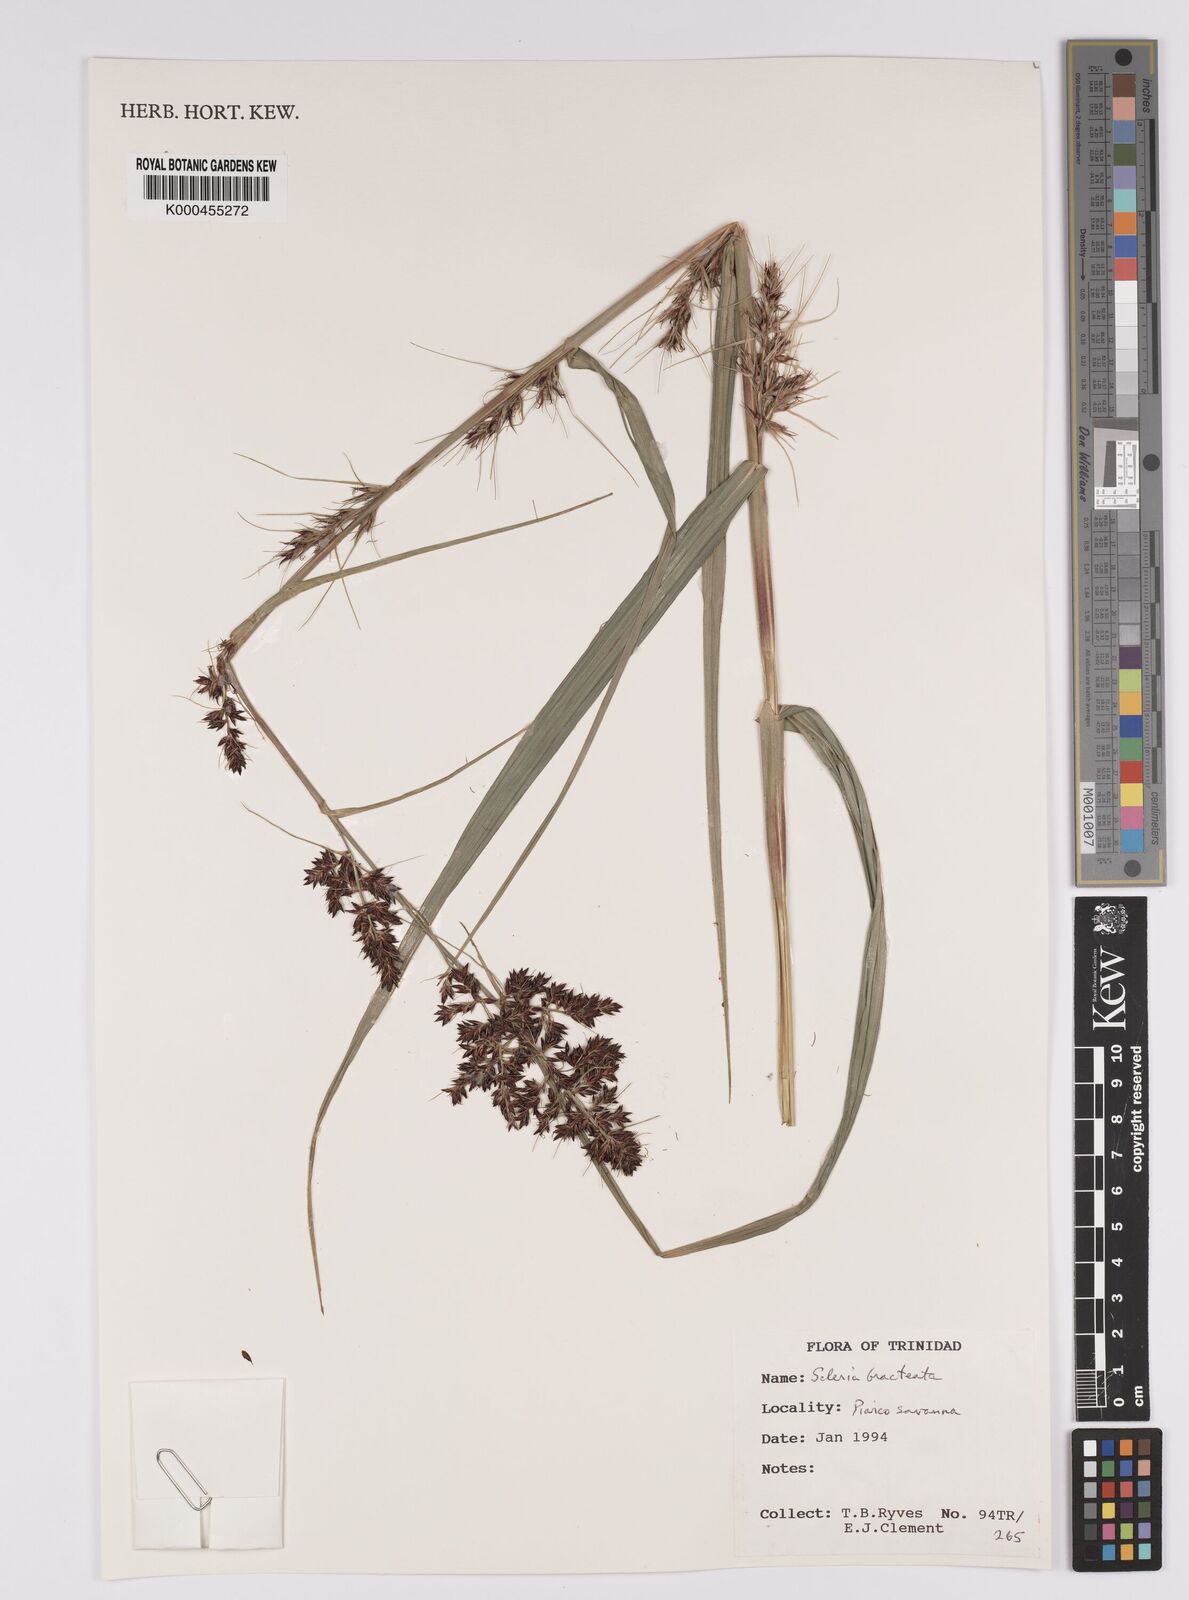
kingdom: Plantae
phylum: Tracheophyta
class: Liliopsida
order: Poales
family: Cyperaceae
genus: Scleria
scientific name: Scleria bracteata
